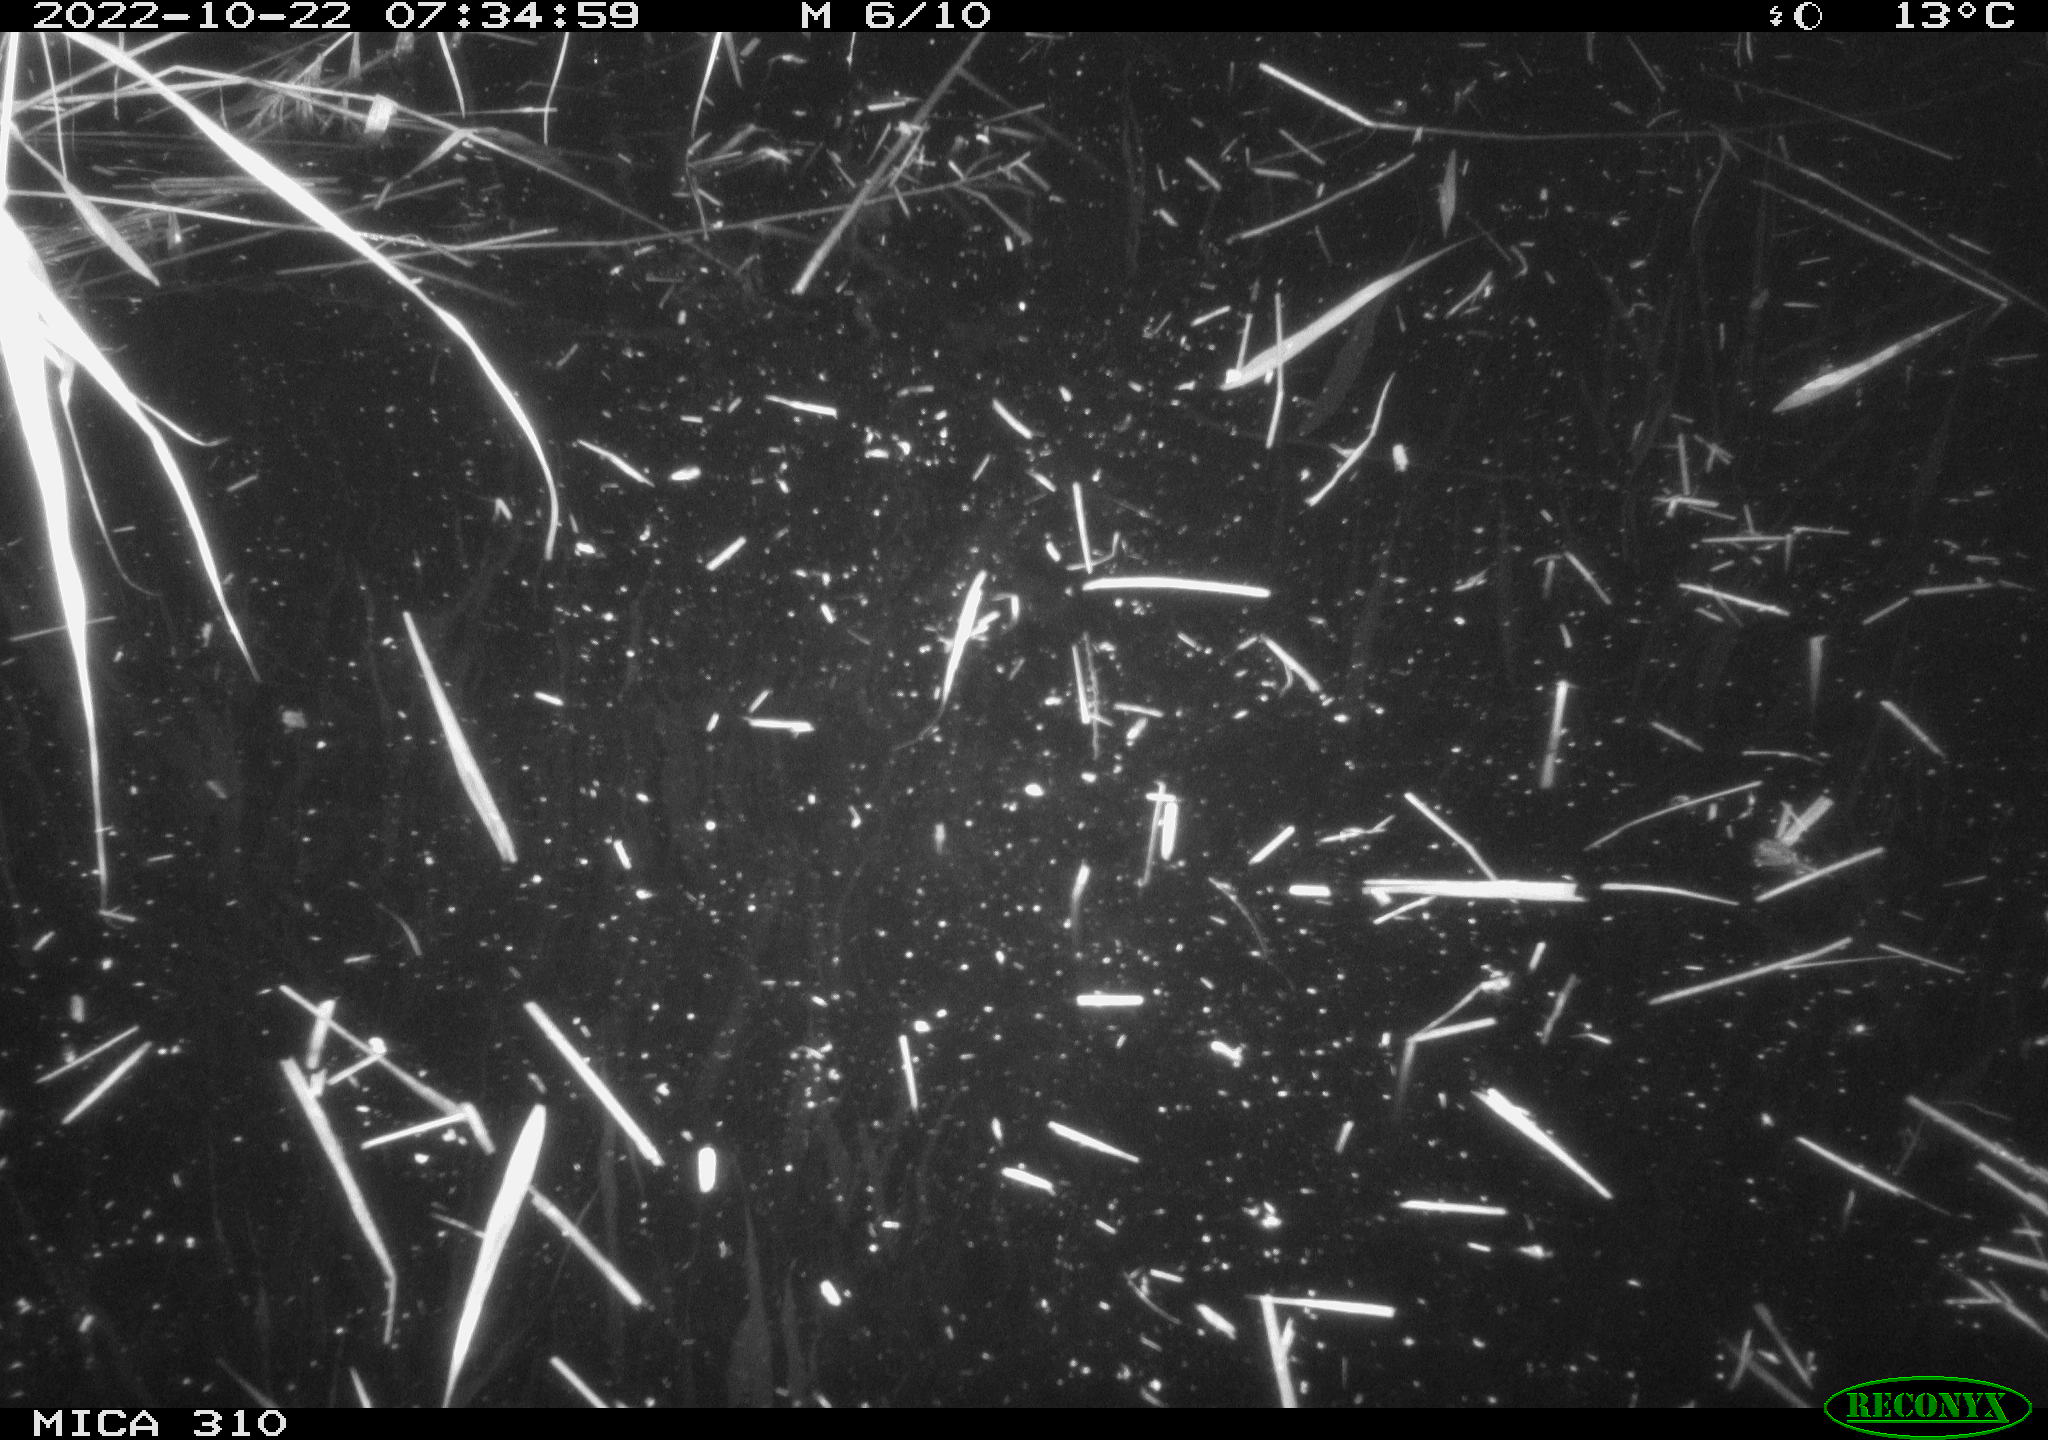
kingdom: Animalia
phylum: Chordata
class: Mammalia
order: Rodentia
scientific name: Rodentia
